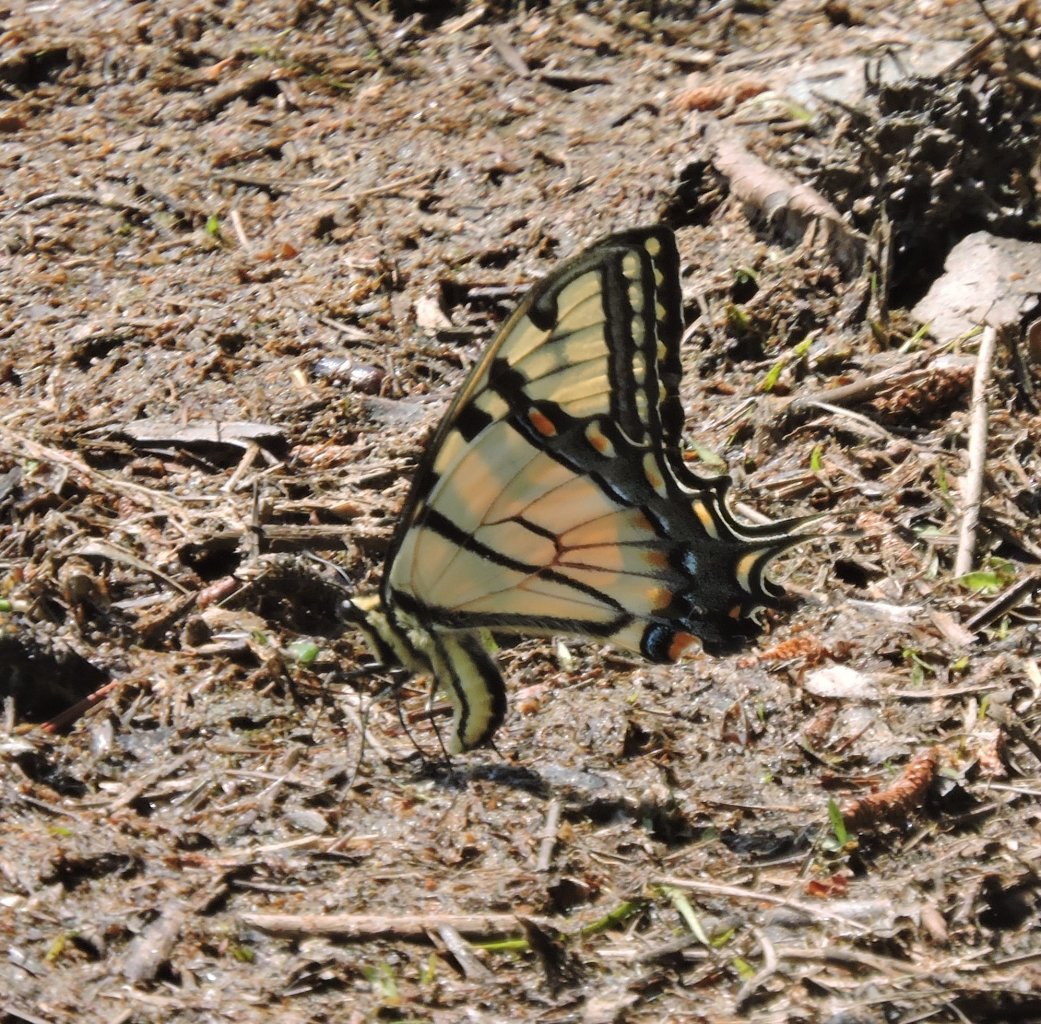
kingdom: Animalia
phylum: Arthropoda
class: Insecta
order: Lepidoptera
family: Papilionidae
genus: Pterourus
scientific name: Pterourus glaucus
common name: Eastern Tiger Swallowtail
